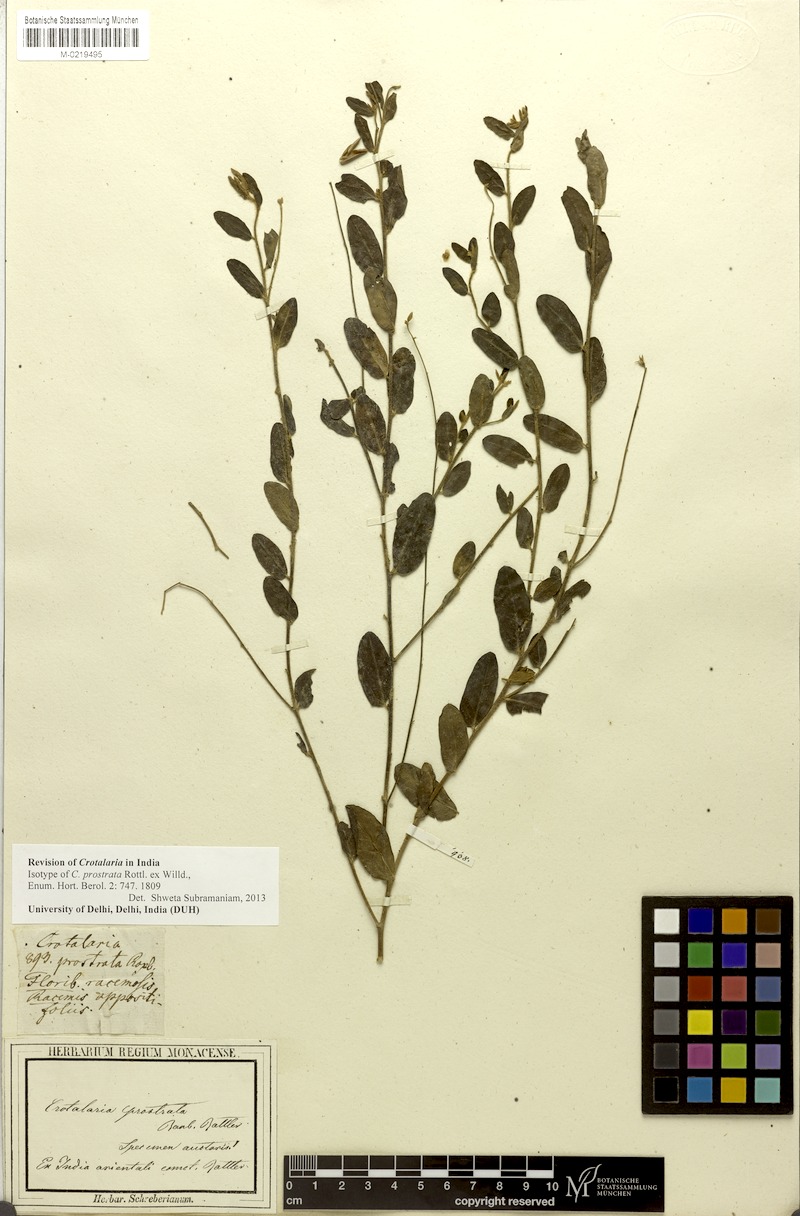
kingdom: Plantae
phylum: Tracheophyta
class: Magnoliopsida
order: Fabales
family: Fabaceae
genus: Crotalaria
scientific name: Crotalaria prostrata
